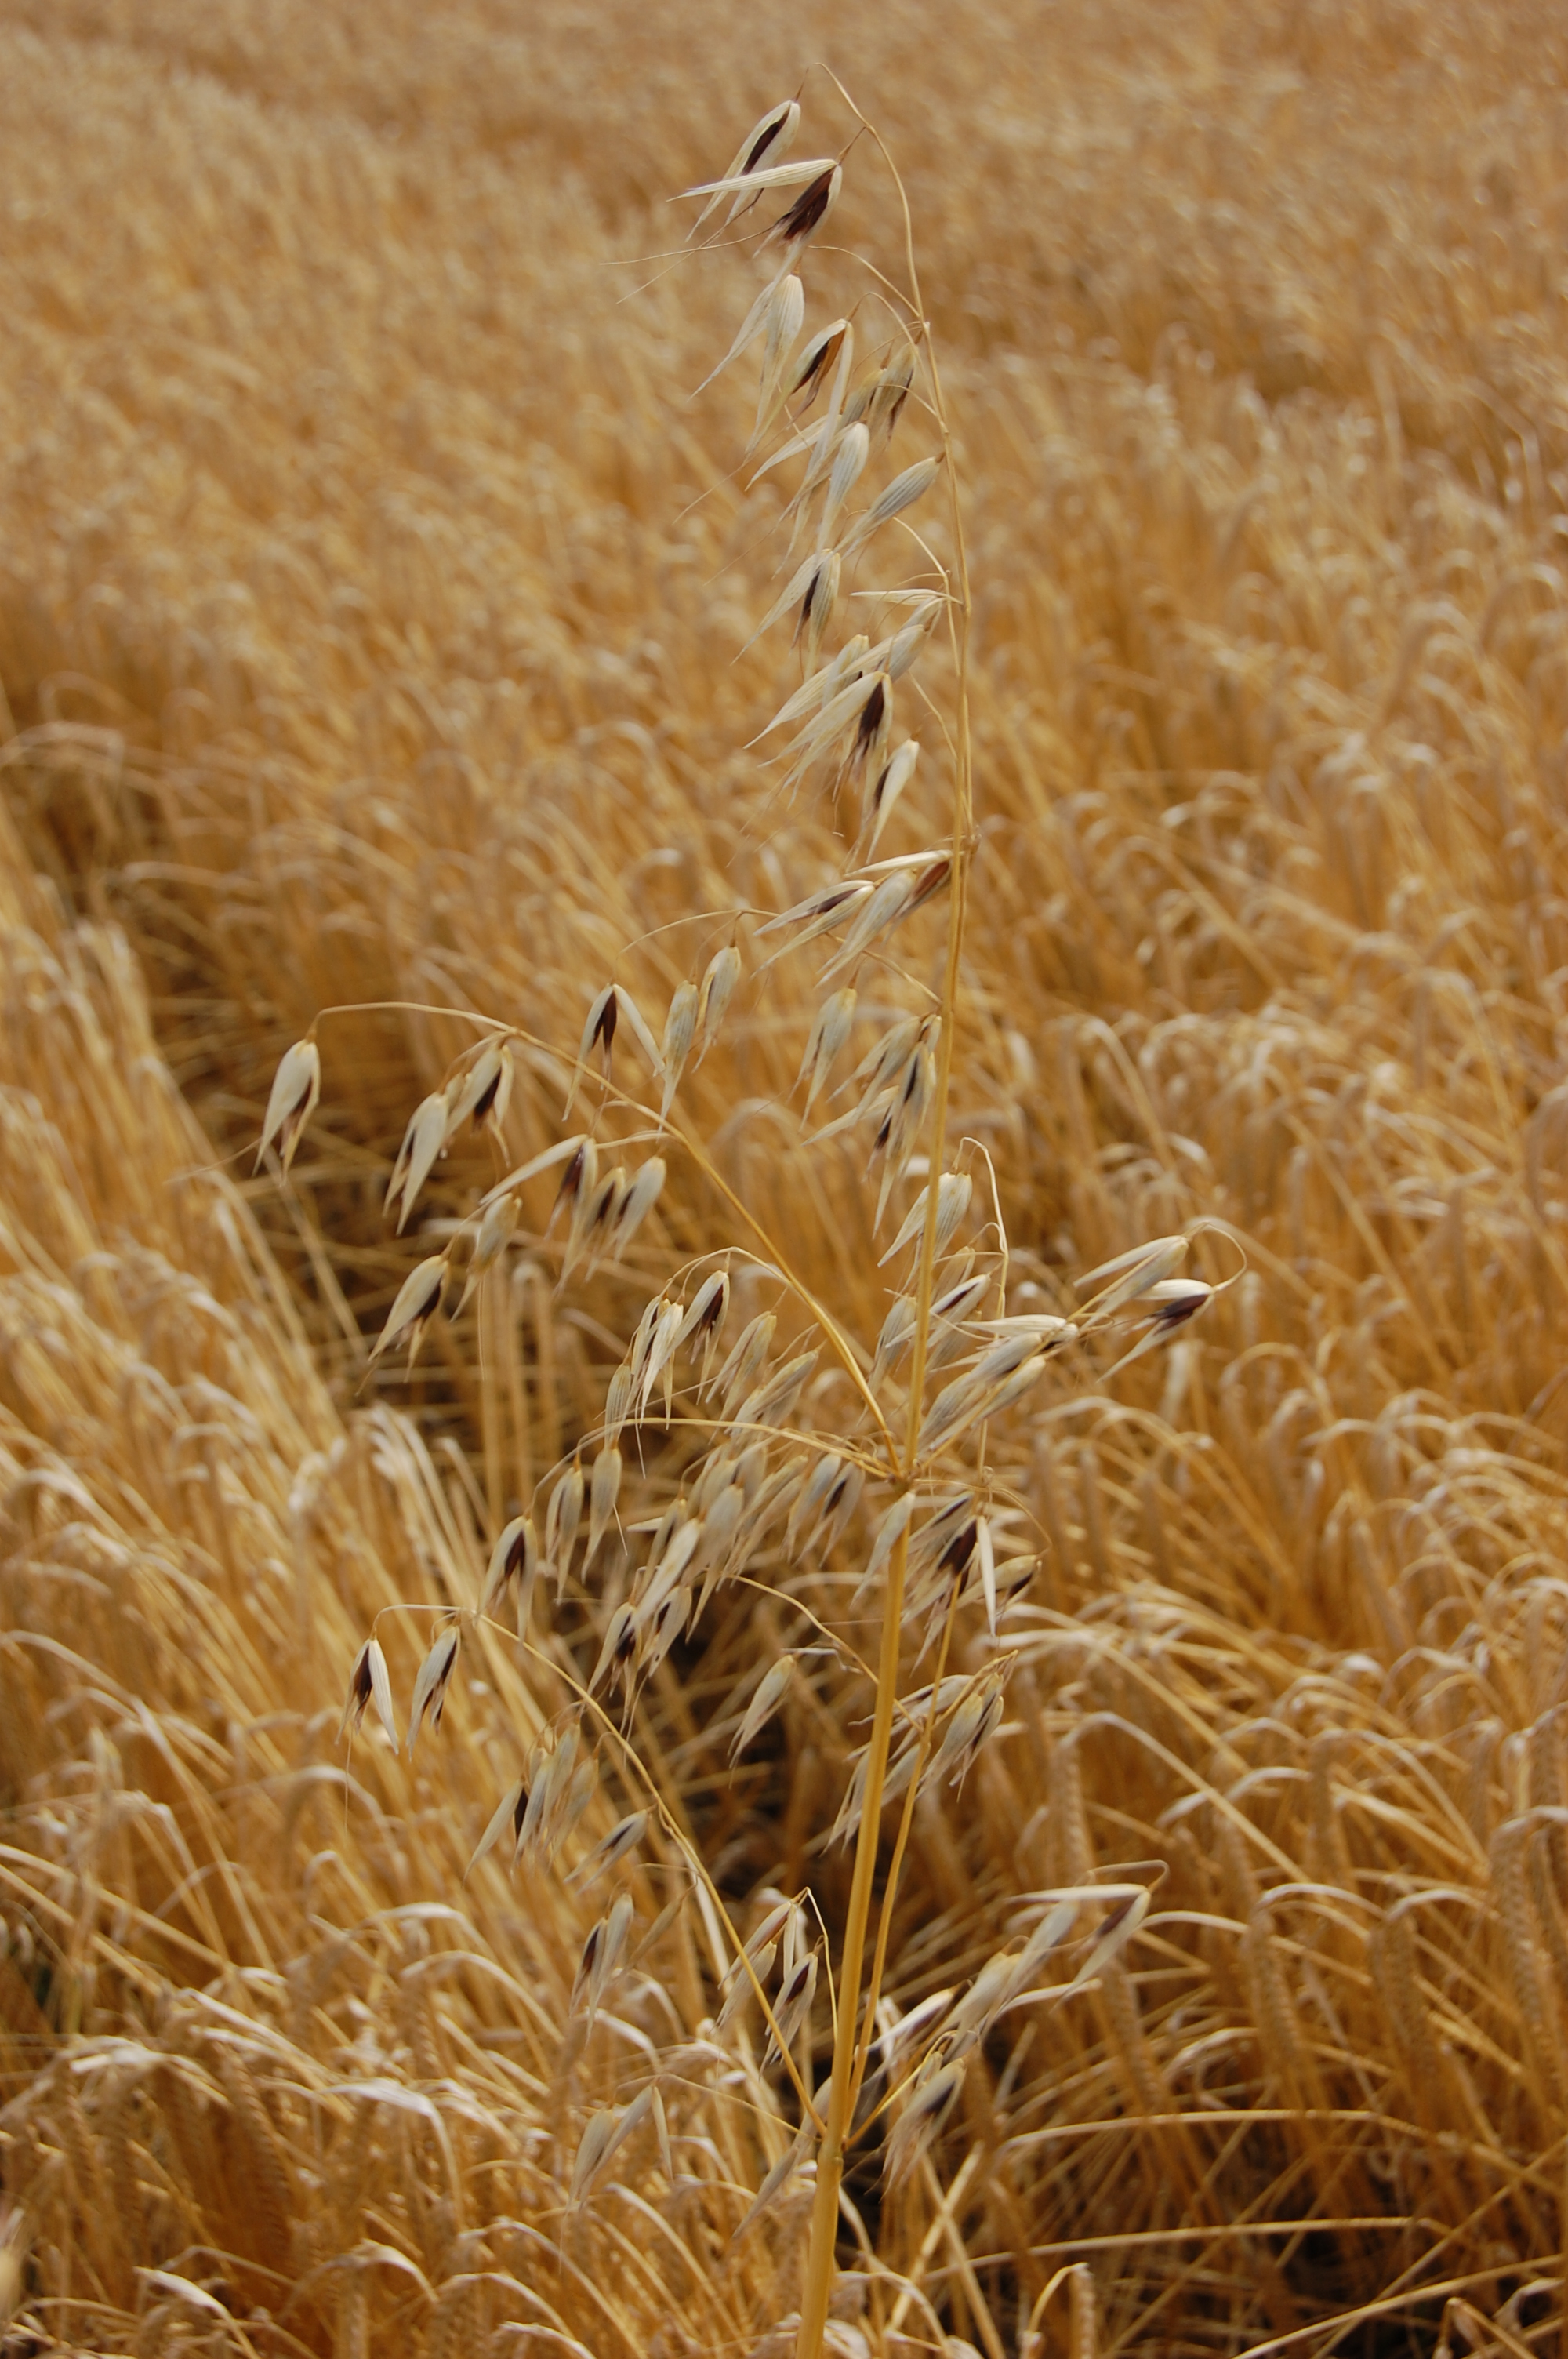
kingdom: Plantae
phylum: Tracheophyta
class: Liliopsida
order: Poales
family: Poaceae
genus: Avena
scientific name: Avena sativa
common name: Oat
